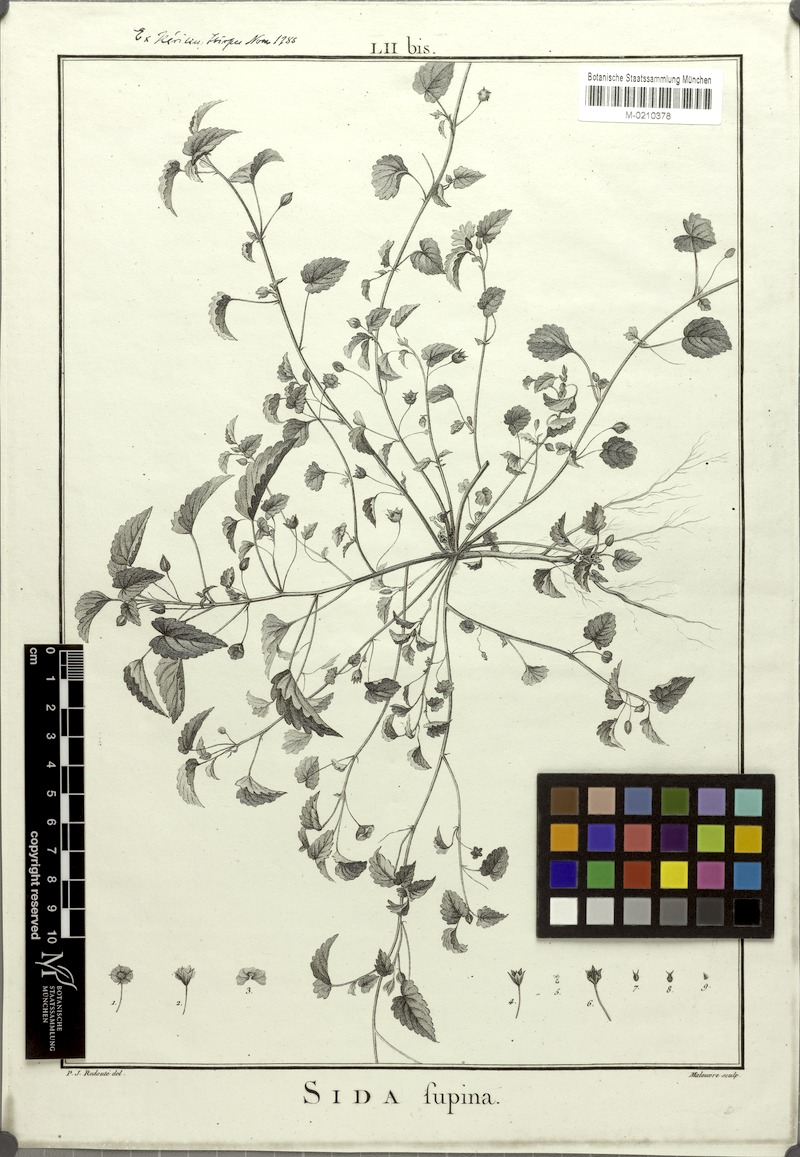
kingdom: Plantae
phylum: Tracheophyta
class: Magnoliopsida
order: Malvales
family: Malvaceae
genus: Sida
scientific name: Sida abutilifolia
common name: Spreading fanpetals
